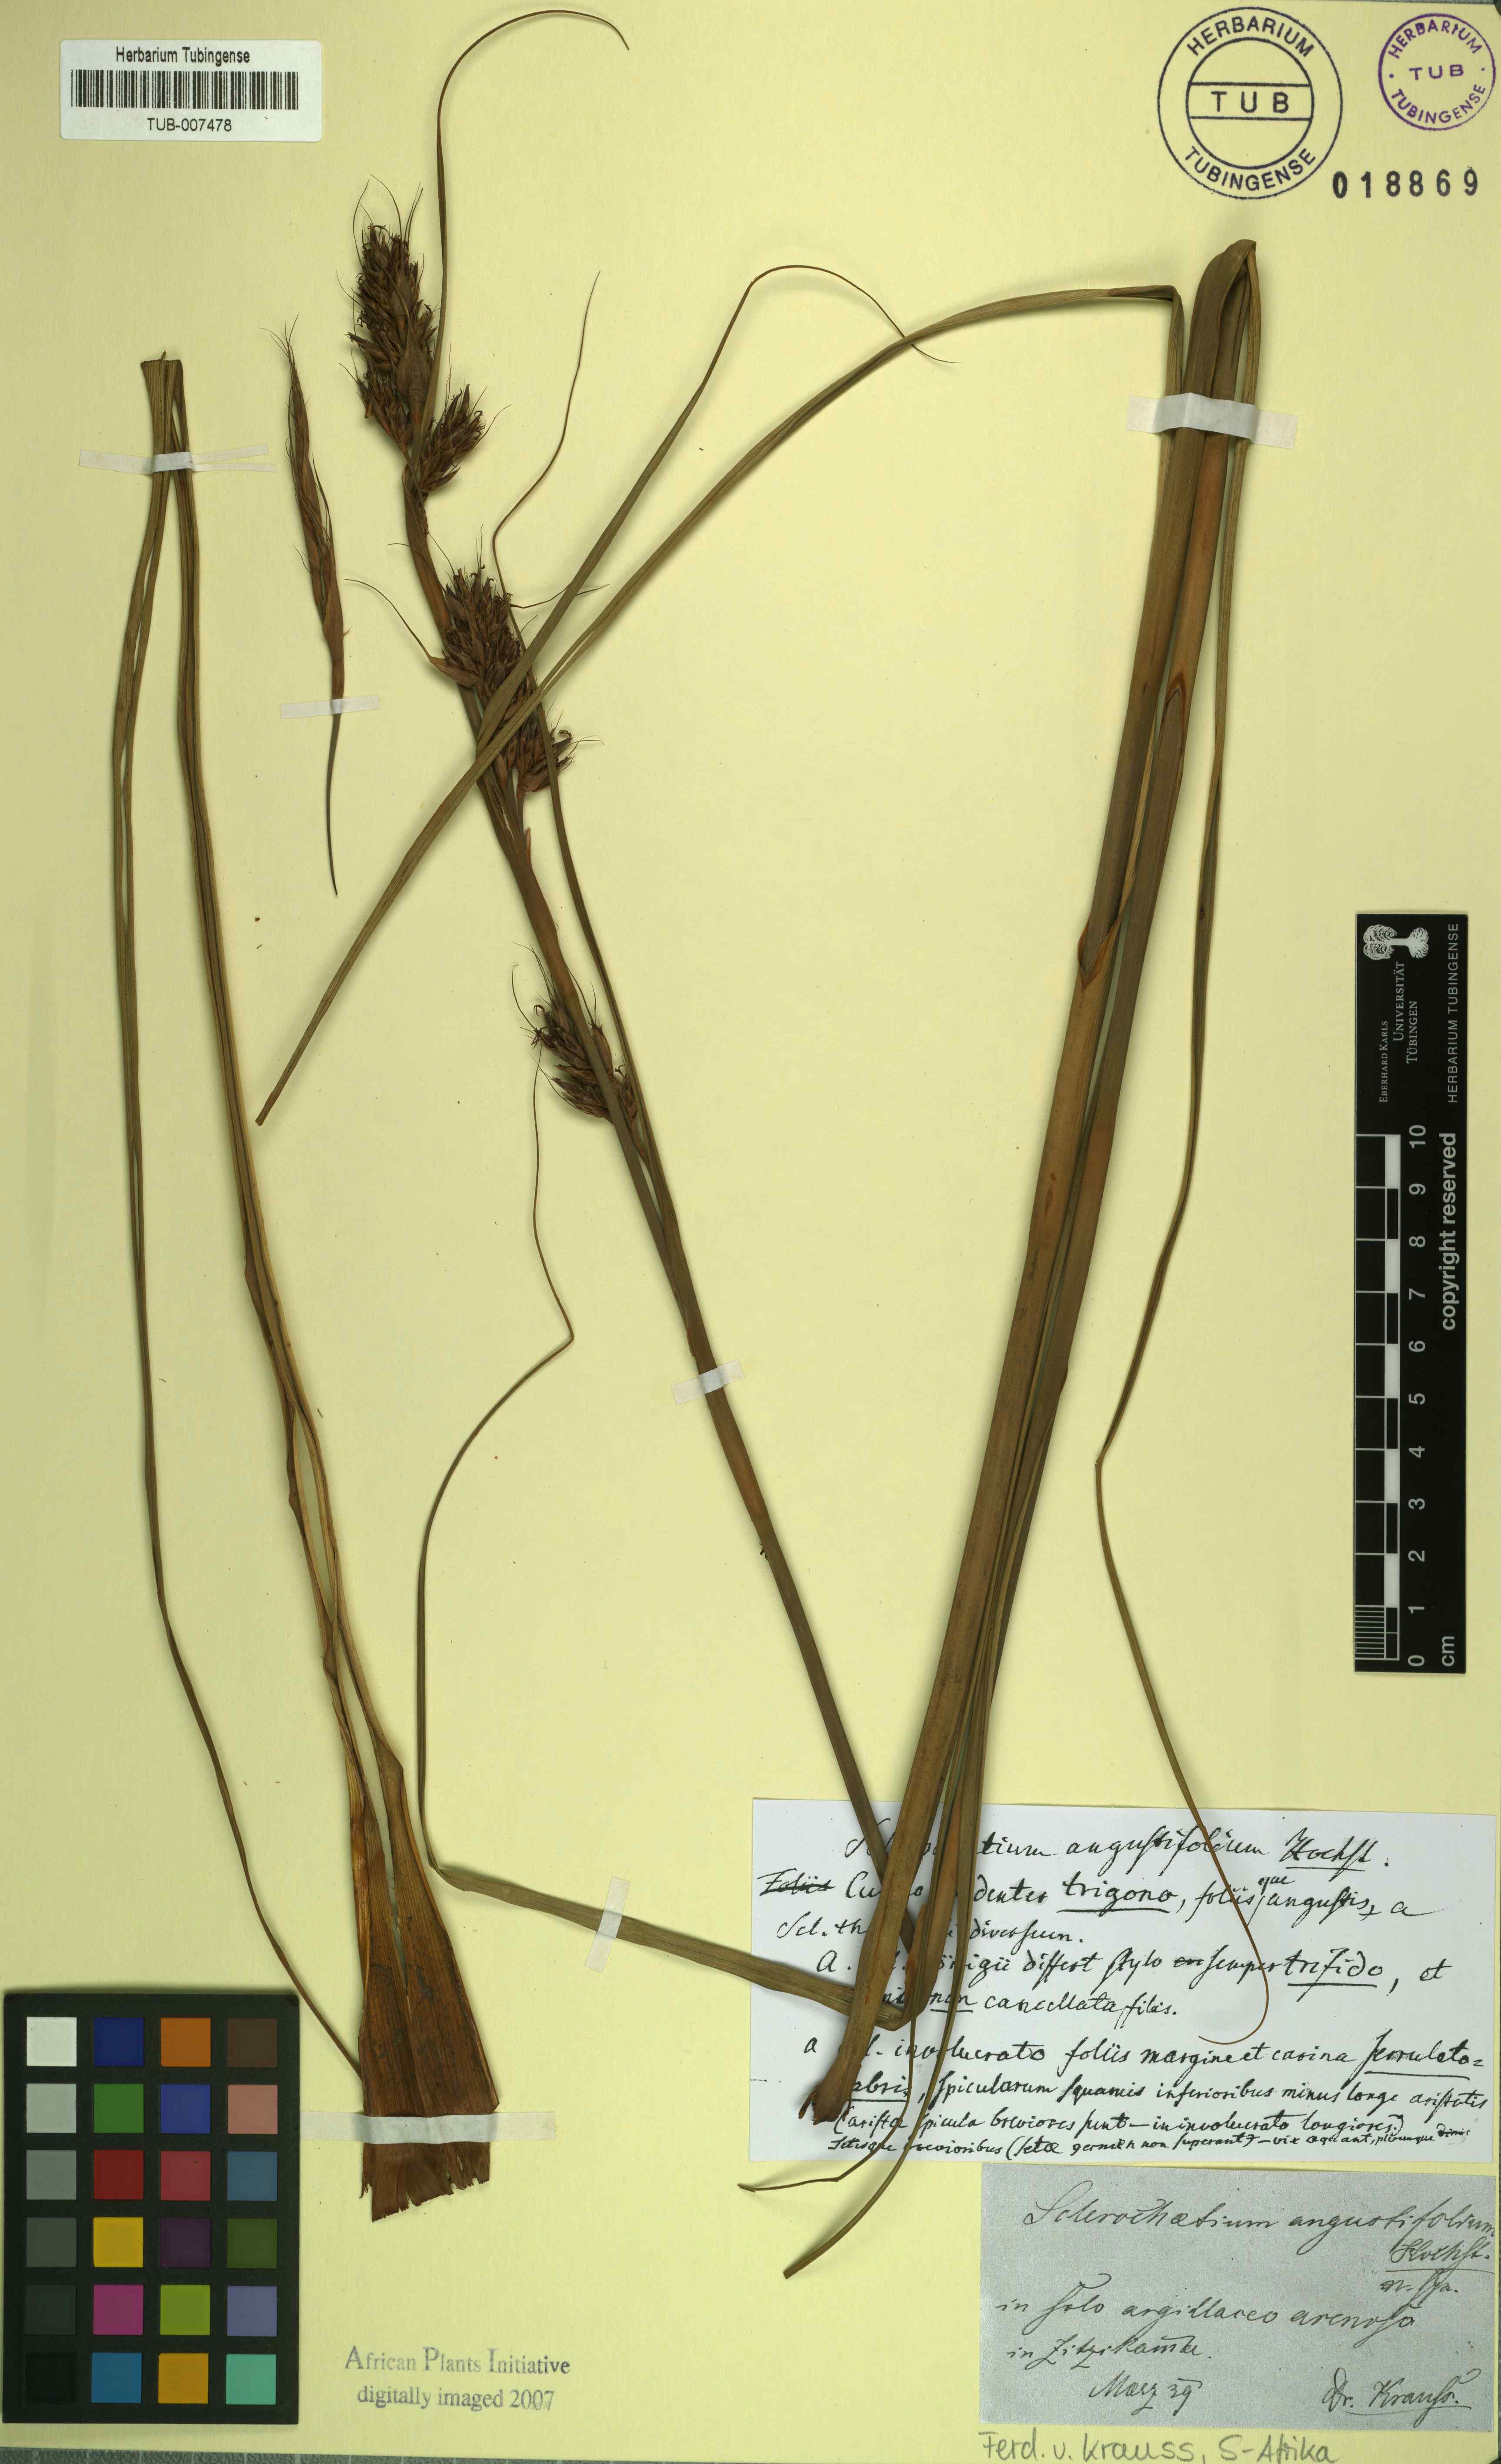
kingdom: Plantae
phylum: Tracheophyta
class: Liliopsida
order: Poales
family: Cyperaceae
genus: Tetraria
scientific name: Tetraria bromoides
